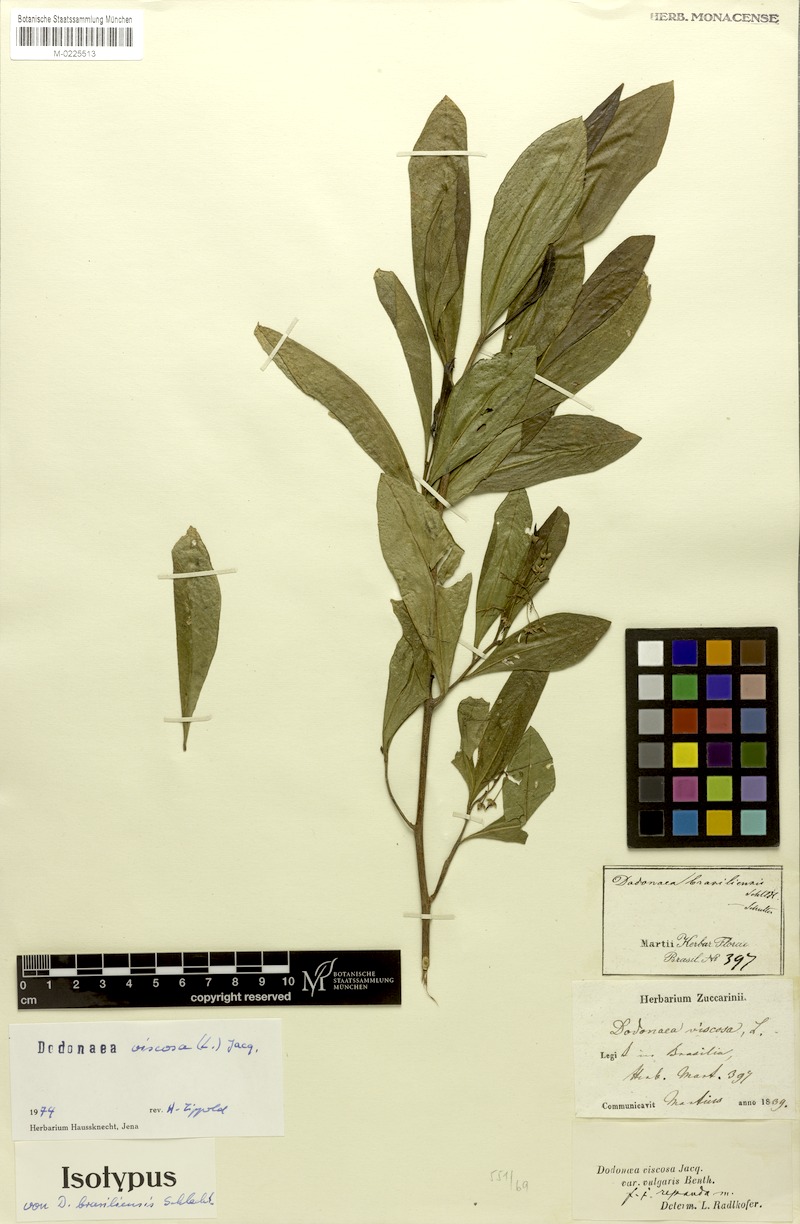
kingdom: Plantae
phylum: Tracheophyta
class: Magnoliopsida
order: Sapindales
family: Sapindaceae
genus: Dodonaea
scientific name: Dodonaea viscosa
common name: Hopbush
